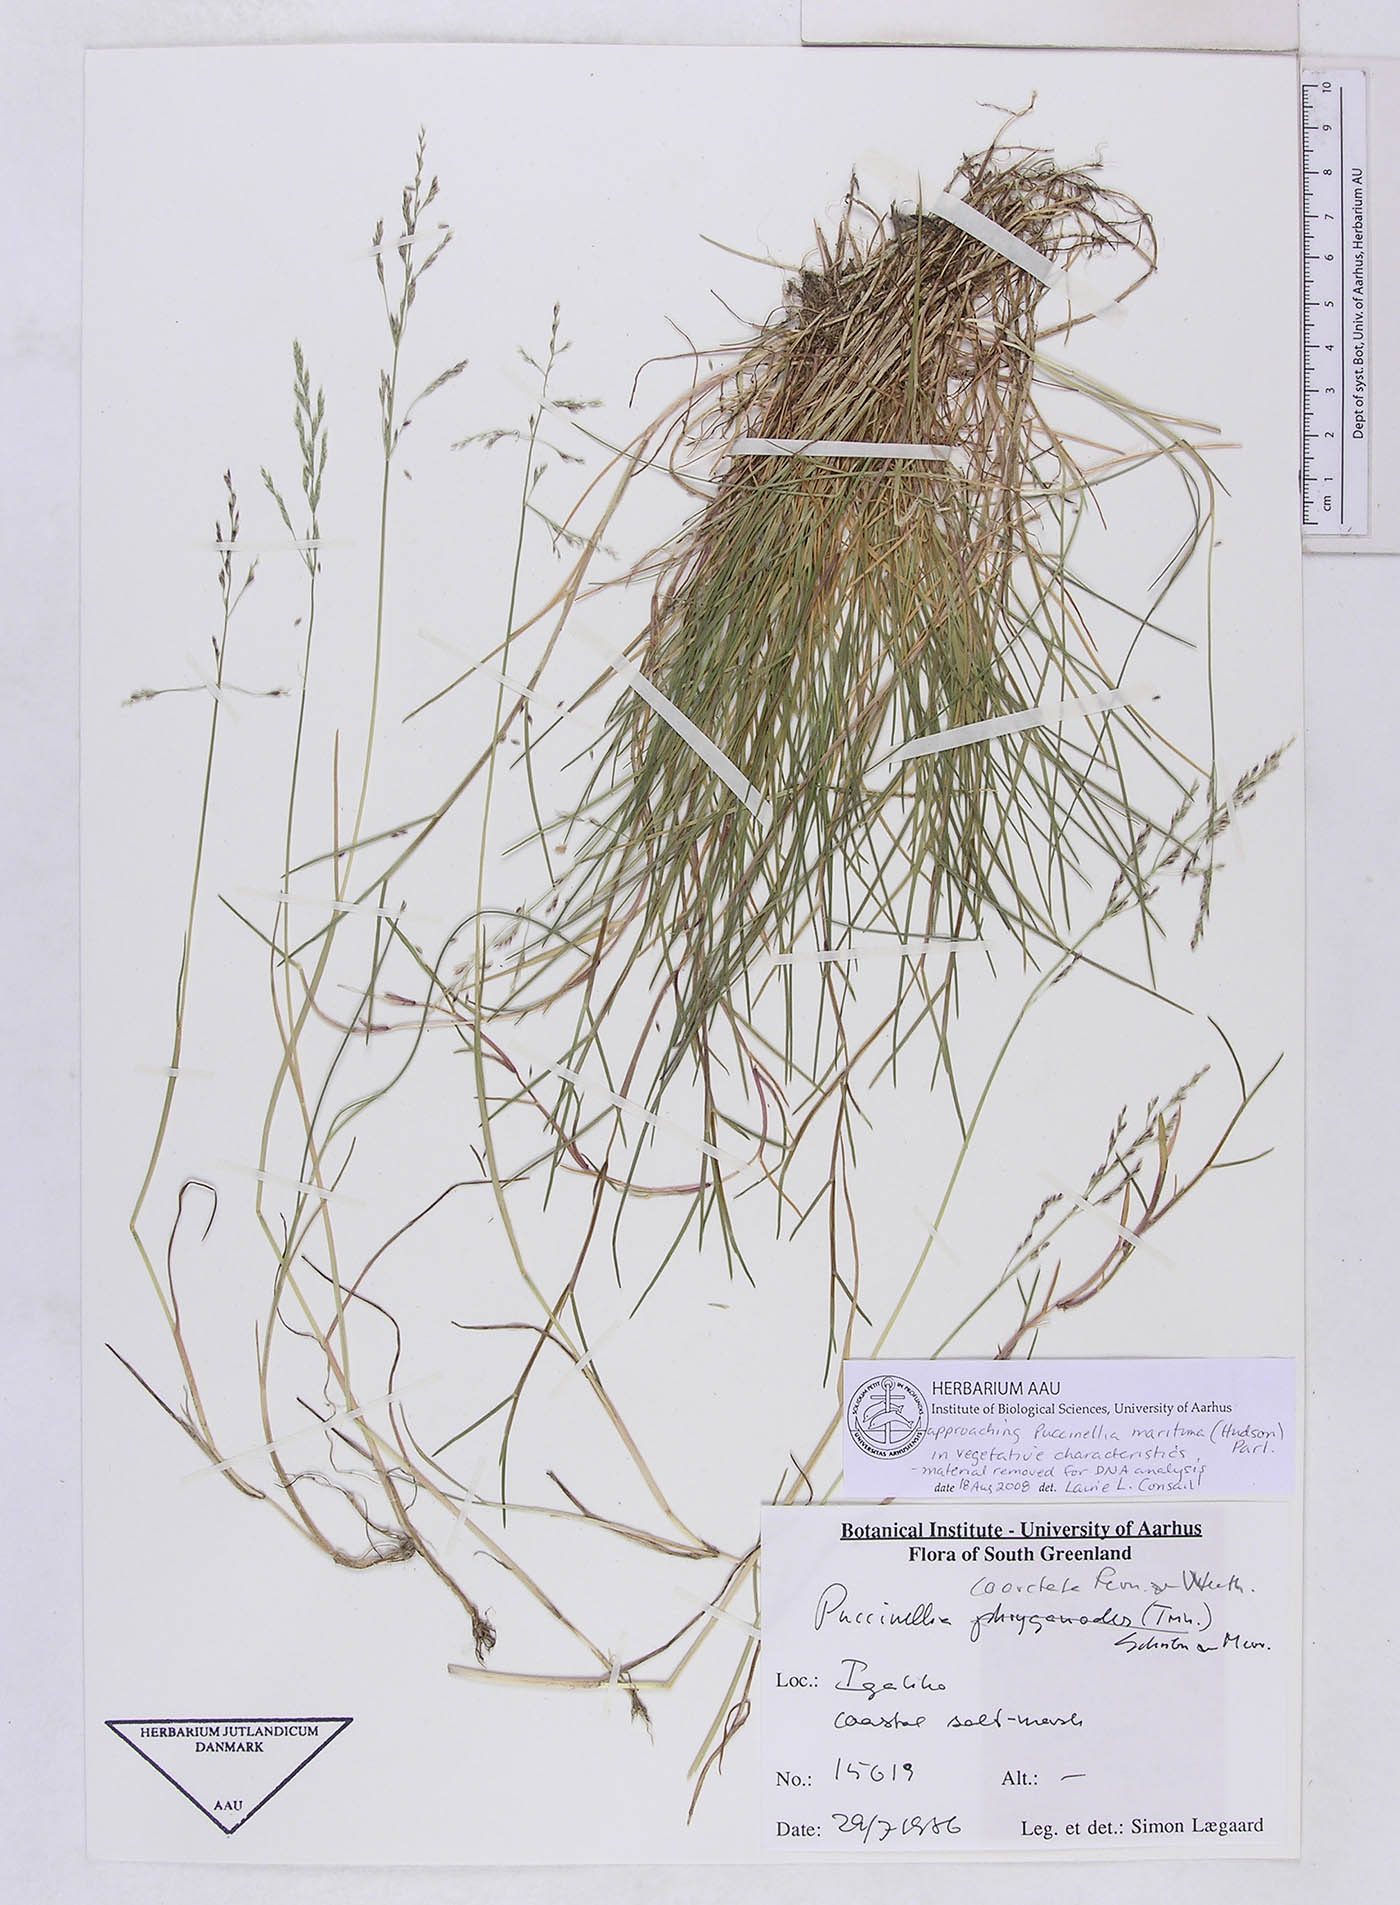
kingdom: Plantae
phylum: Tracheophyta
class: Liliopsida
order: Poales
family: Poaceae
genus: Puccinellia
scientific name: Puccinellia maritima
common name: Common saltmarsh grass
